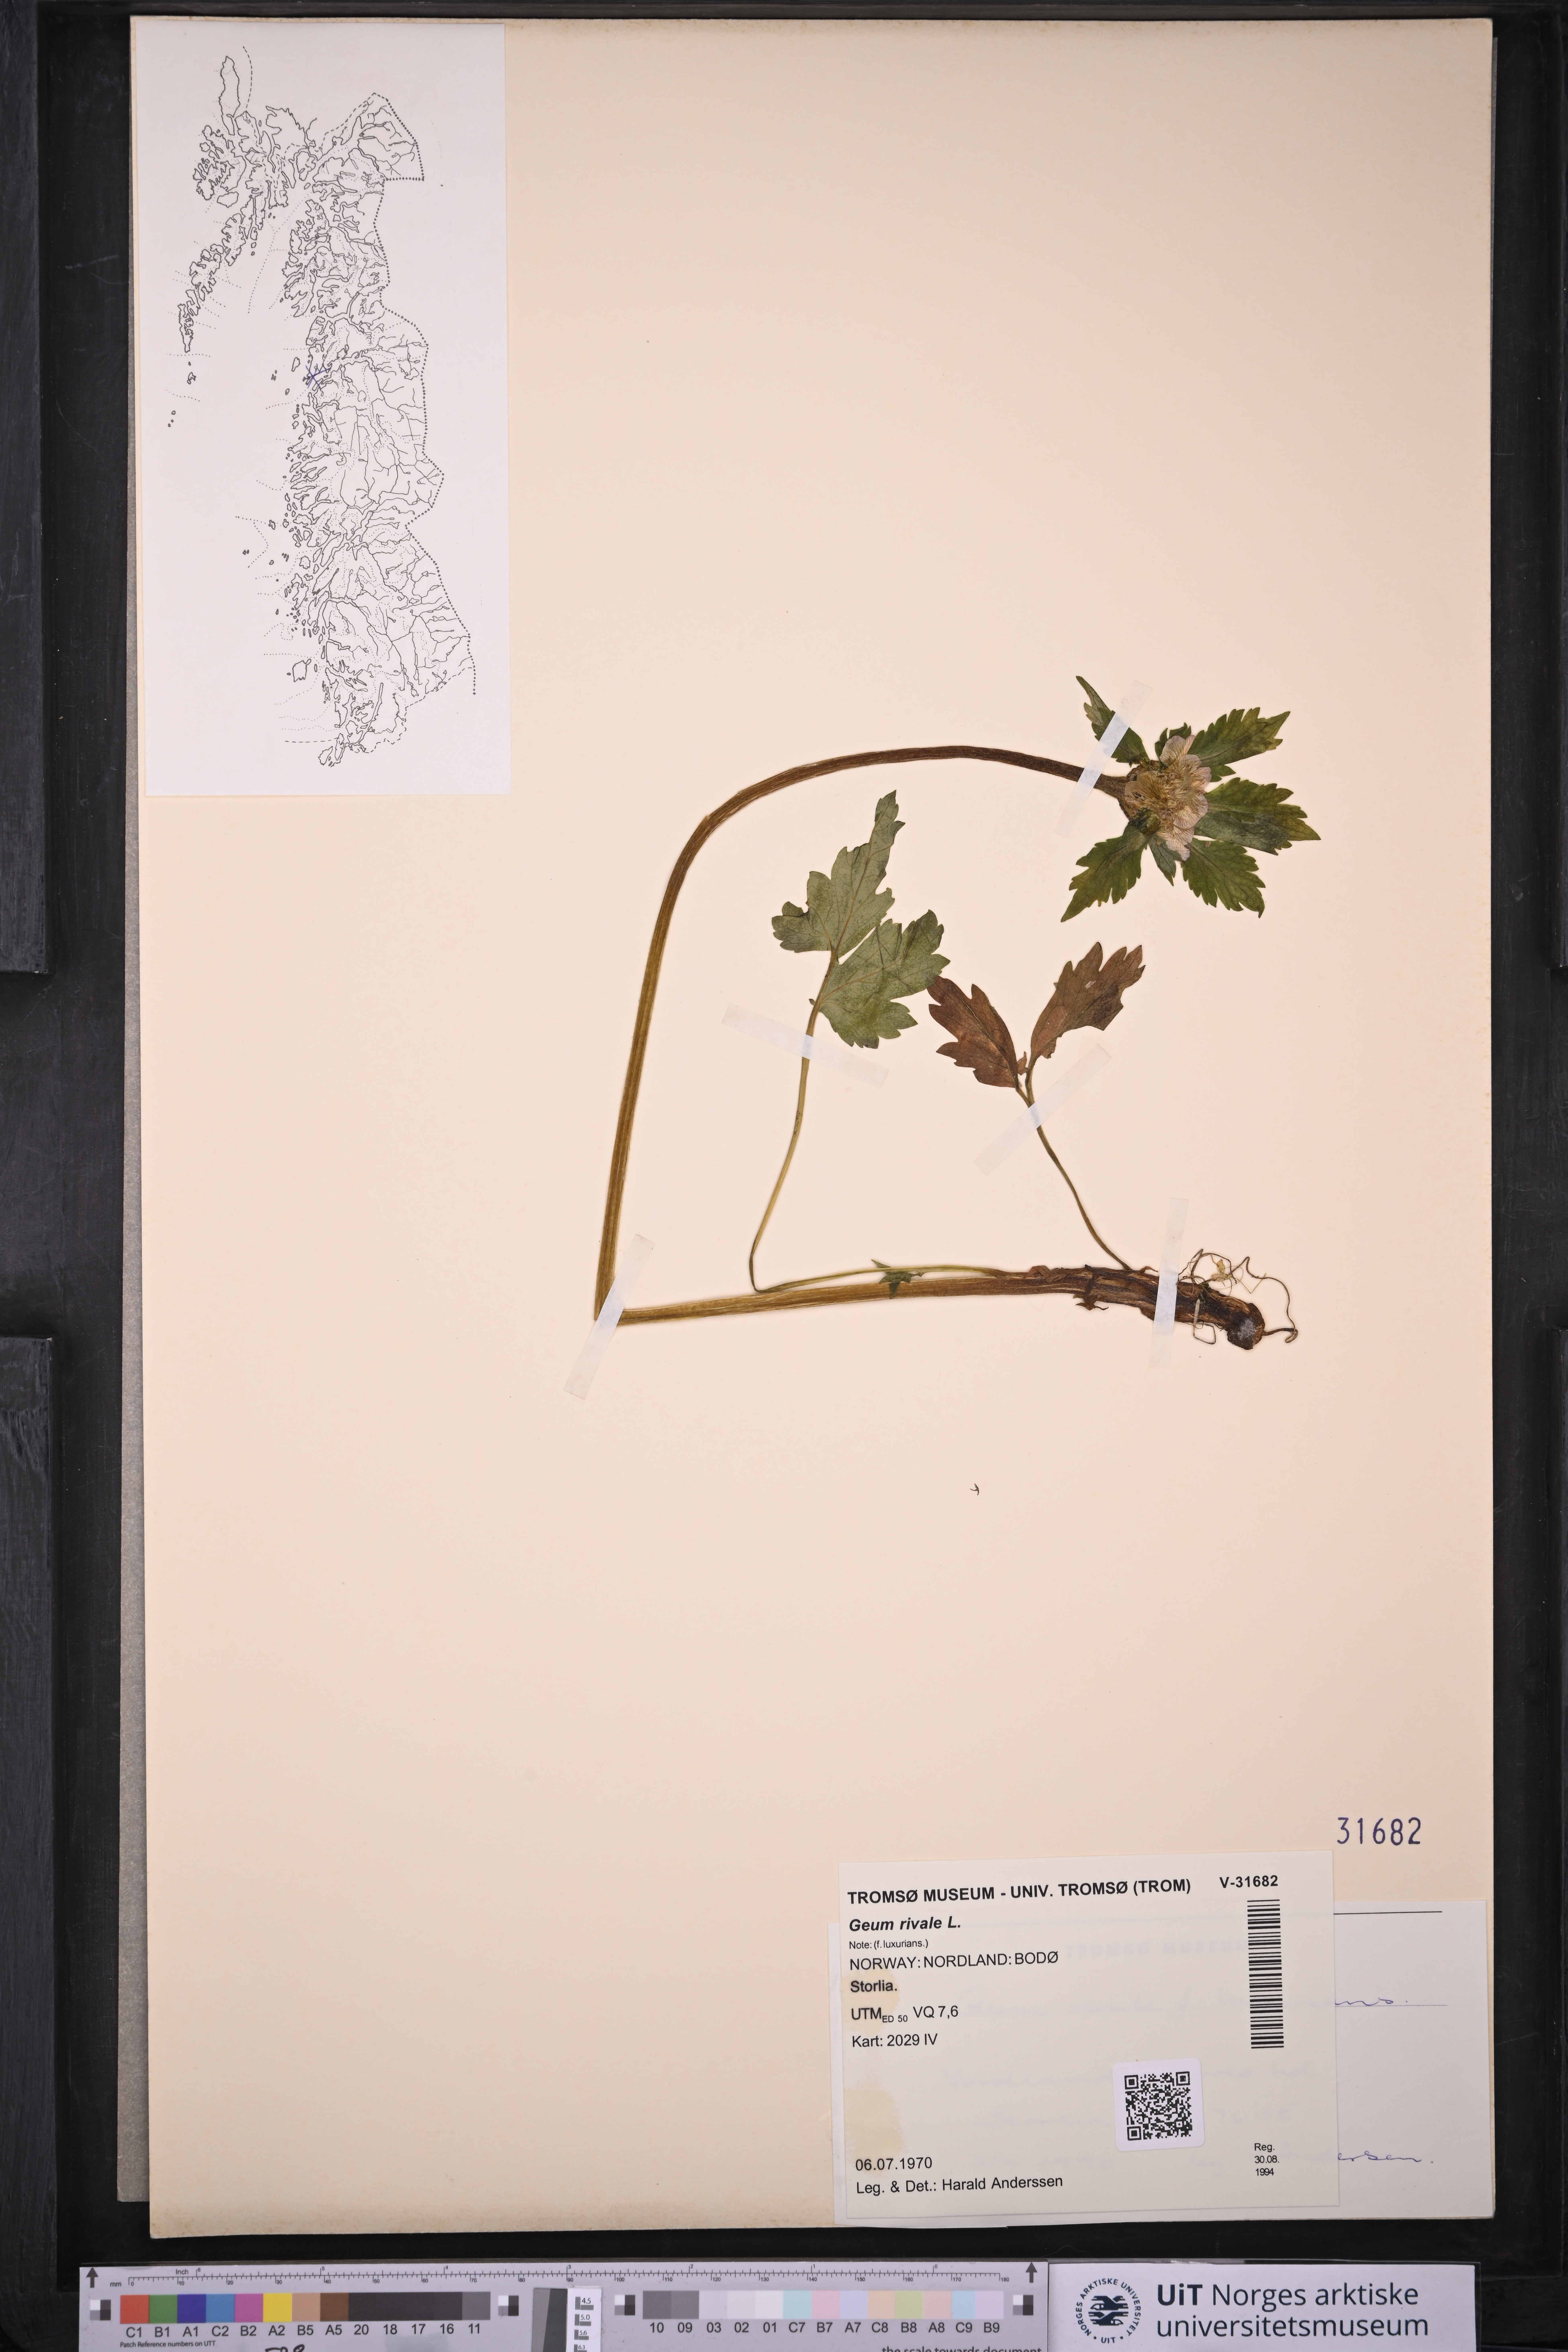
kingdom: Plantae
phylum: Tracheophyta
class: Magnoliopsida
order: Rosales
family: Rosaceae
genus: Geum
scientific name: Geum rivale
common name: Water avens
